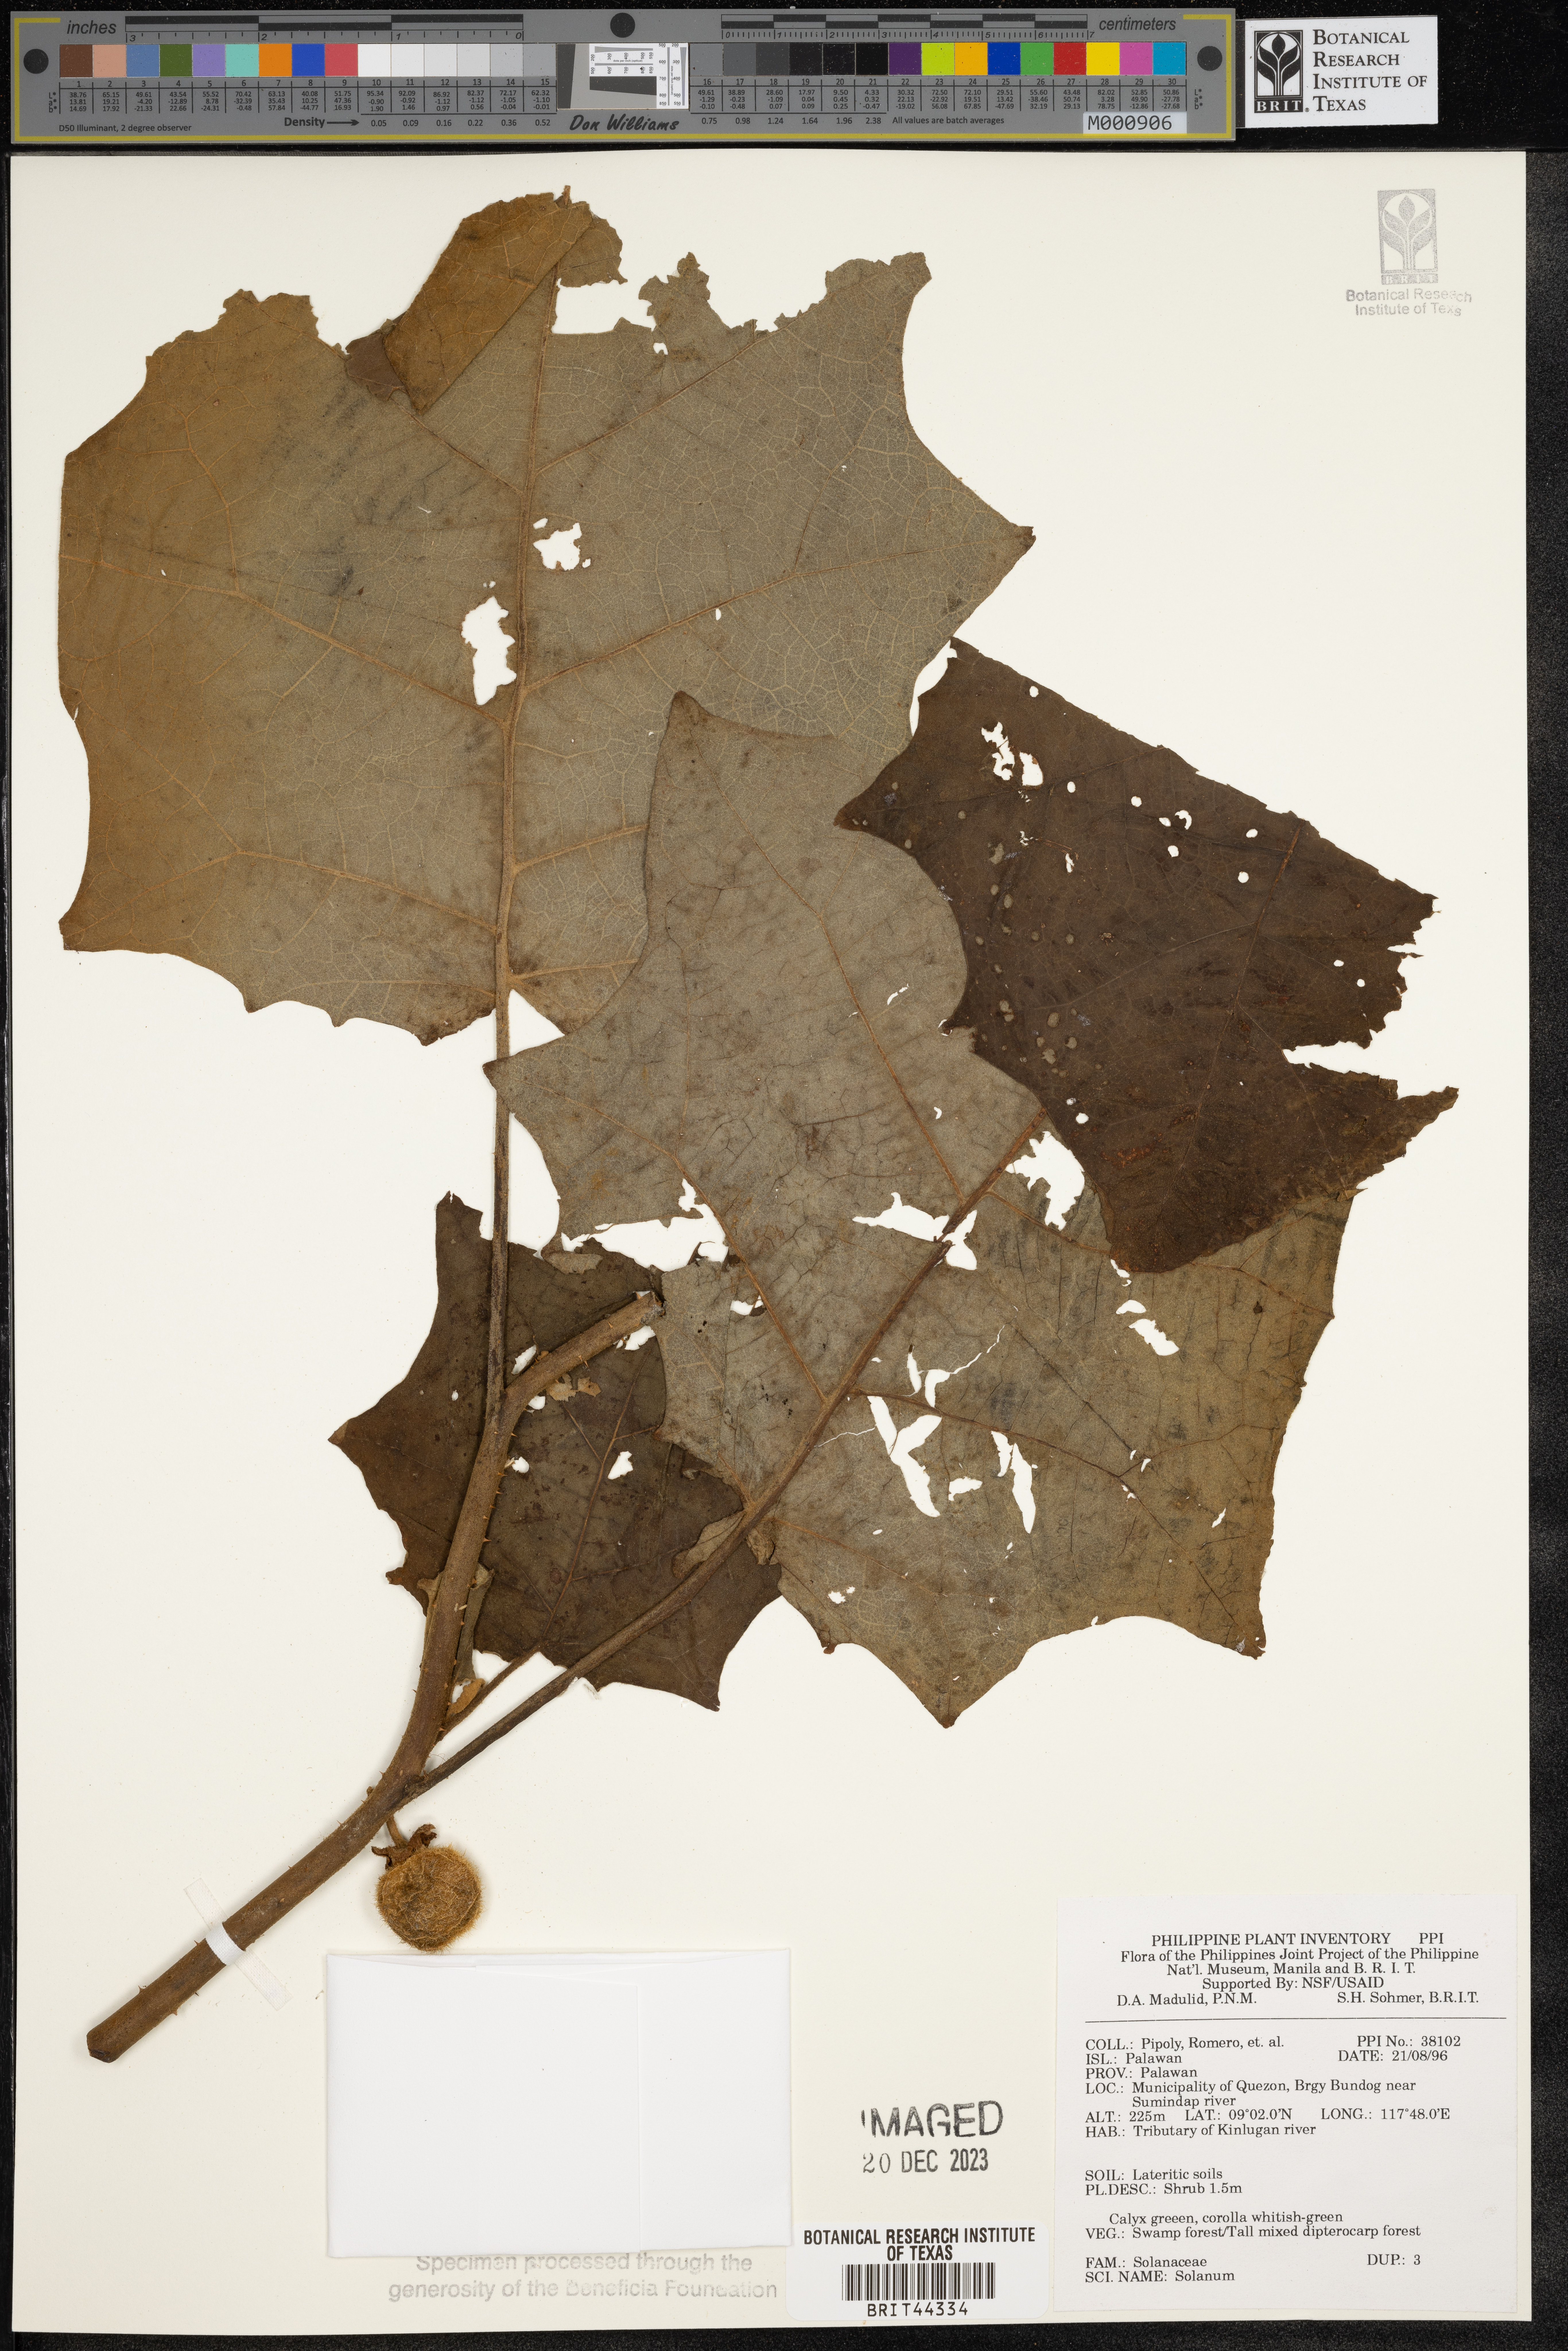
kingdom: Plantae
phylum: Tracheophyta
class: Magnoliopsida
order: Solanales
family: Solanaceae
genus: Solanum
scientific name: Solanum
